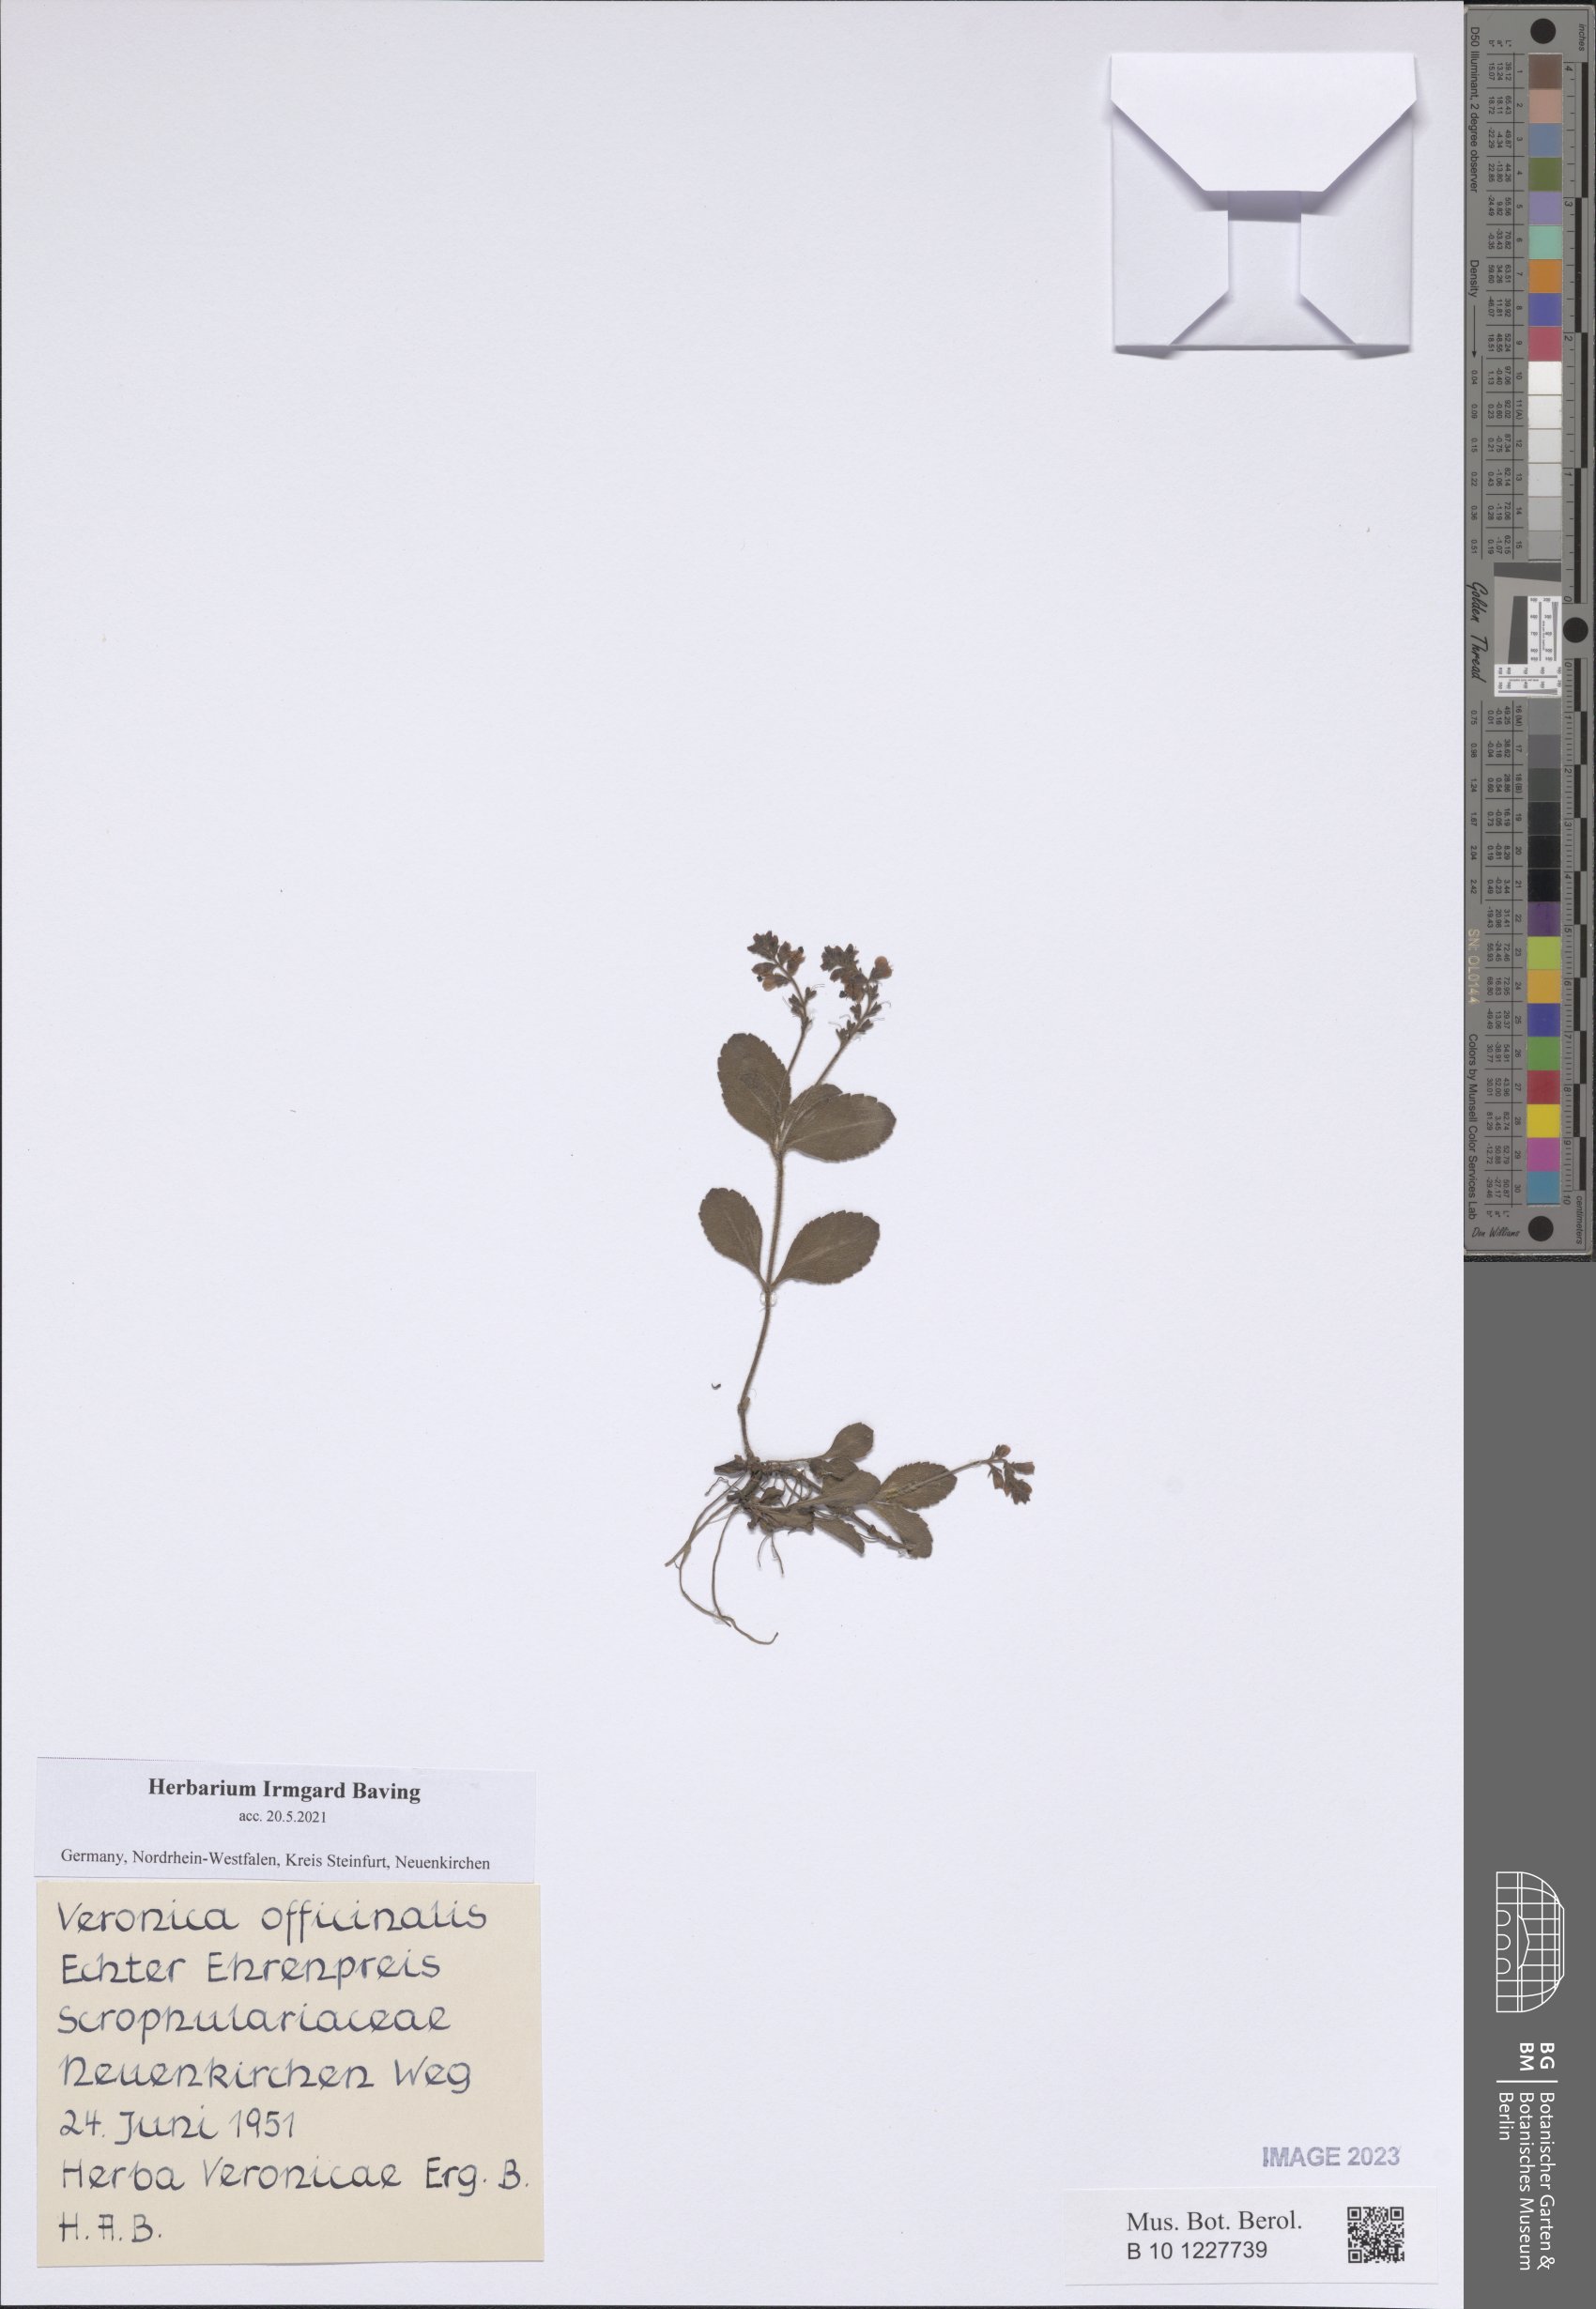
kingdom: Plantae
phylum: Tracheophyta
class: Magnoliopsida
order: Lamiales
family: Plantaginaceae
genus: Veronica
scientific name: Veronica officinalis
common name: Common speedwell
